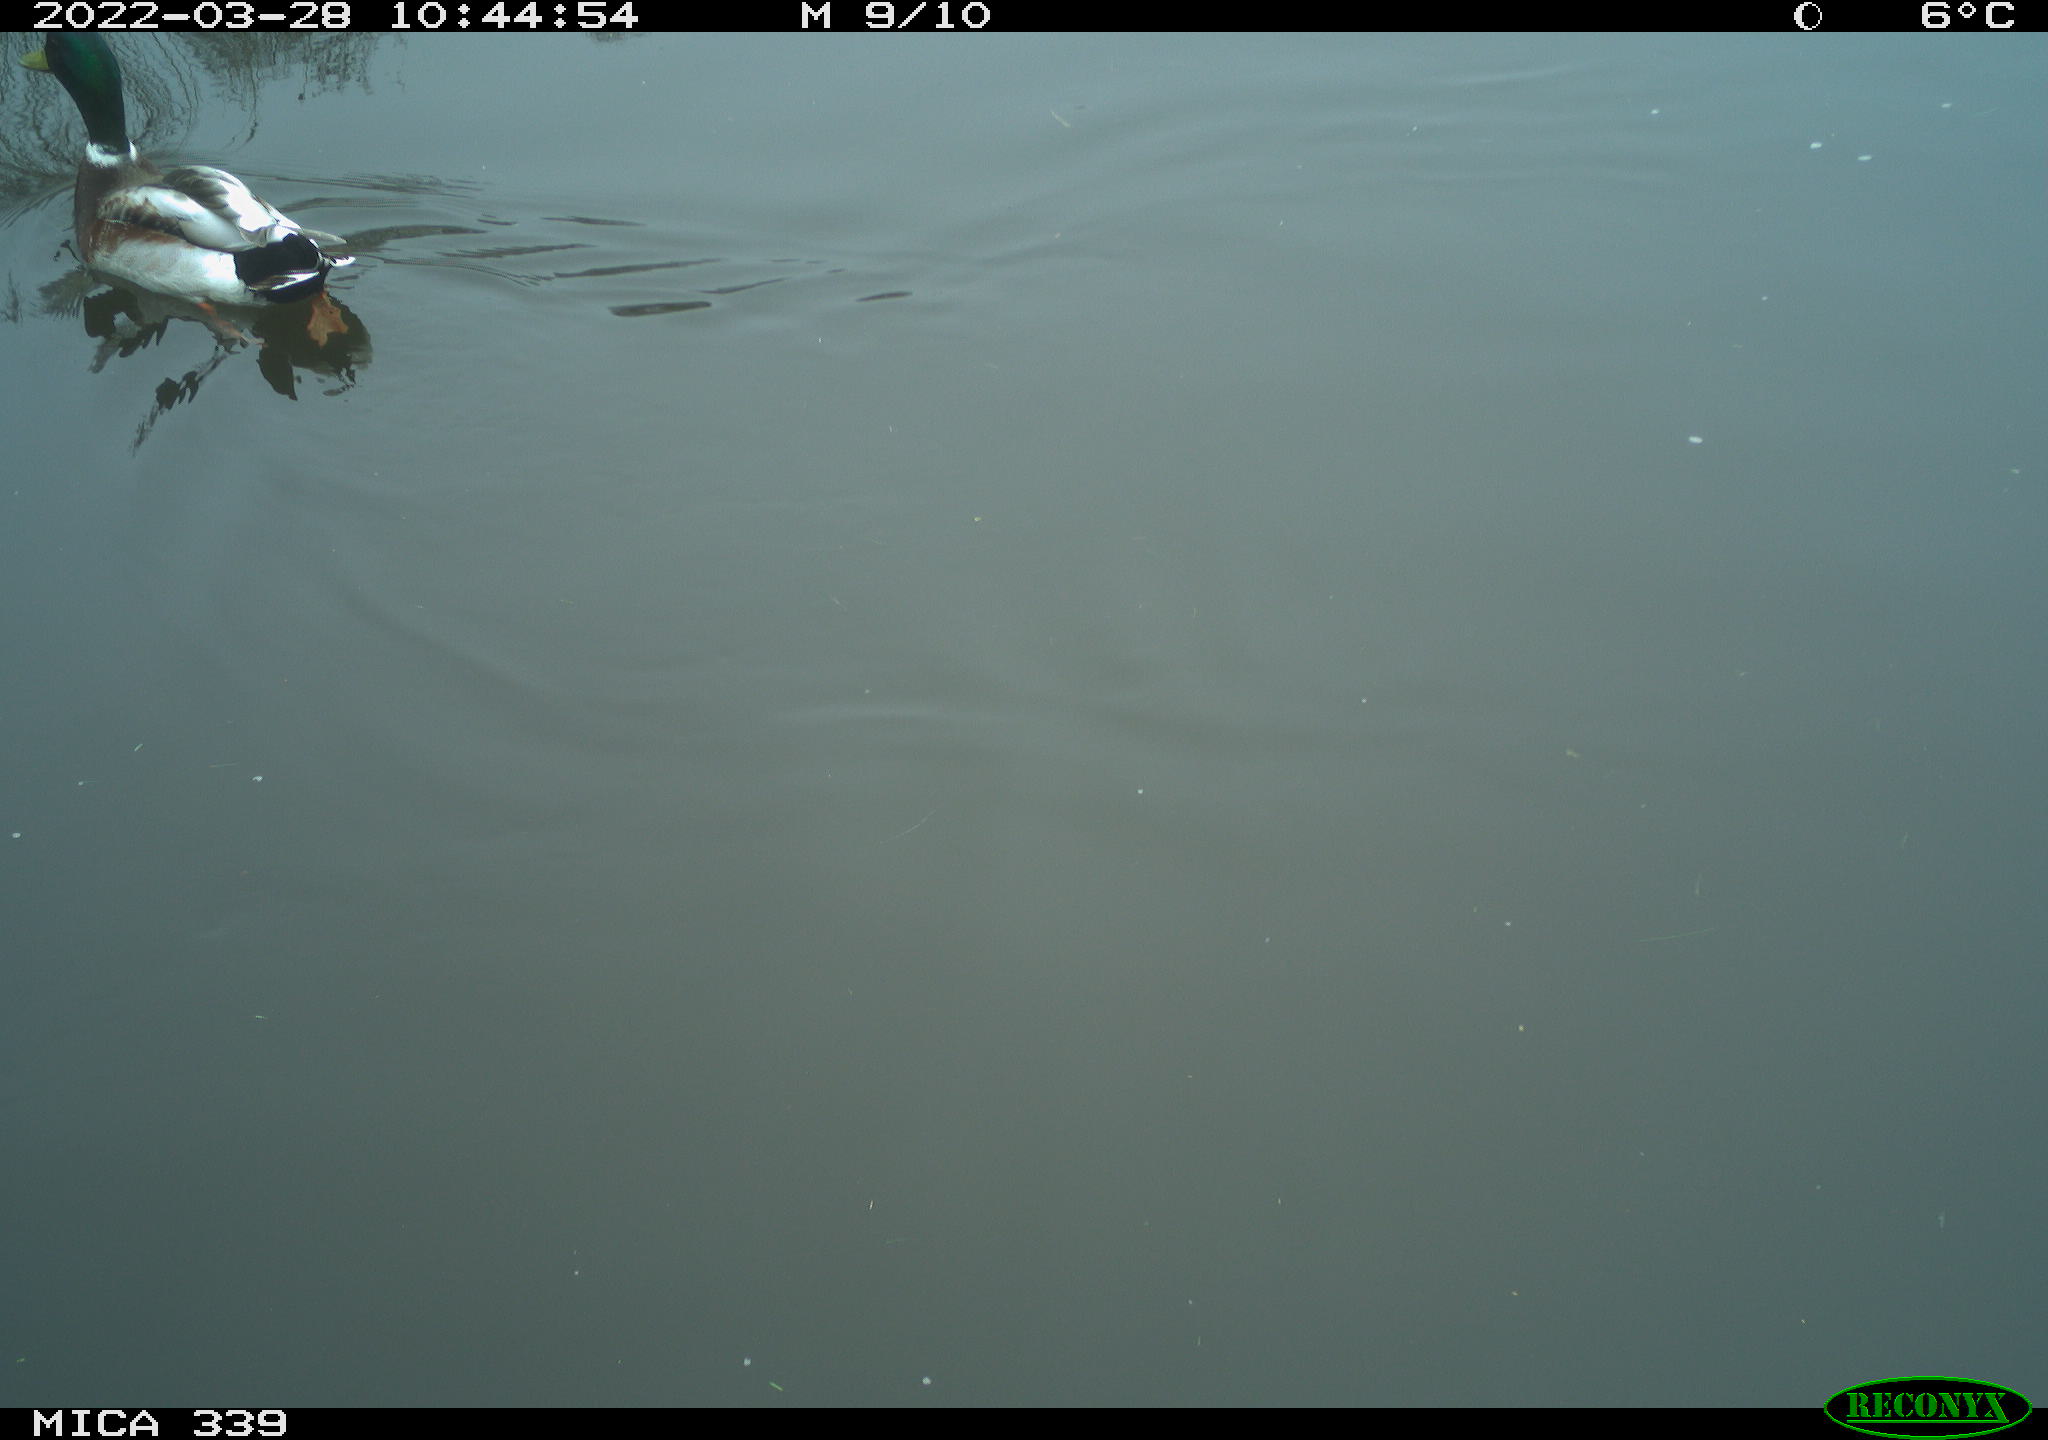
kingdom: Animalia
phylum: Chordata
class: Aves
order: Anseriformes
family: Anatidae
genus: Anas
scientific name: Anas platyrhynchos
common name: Mallard
